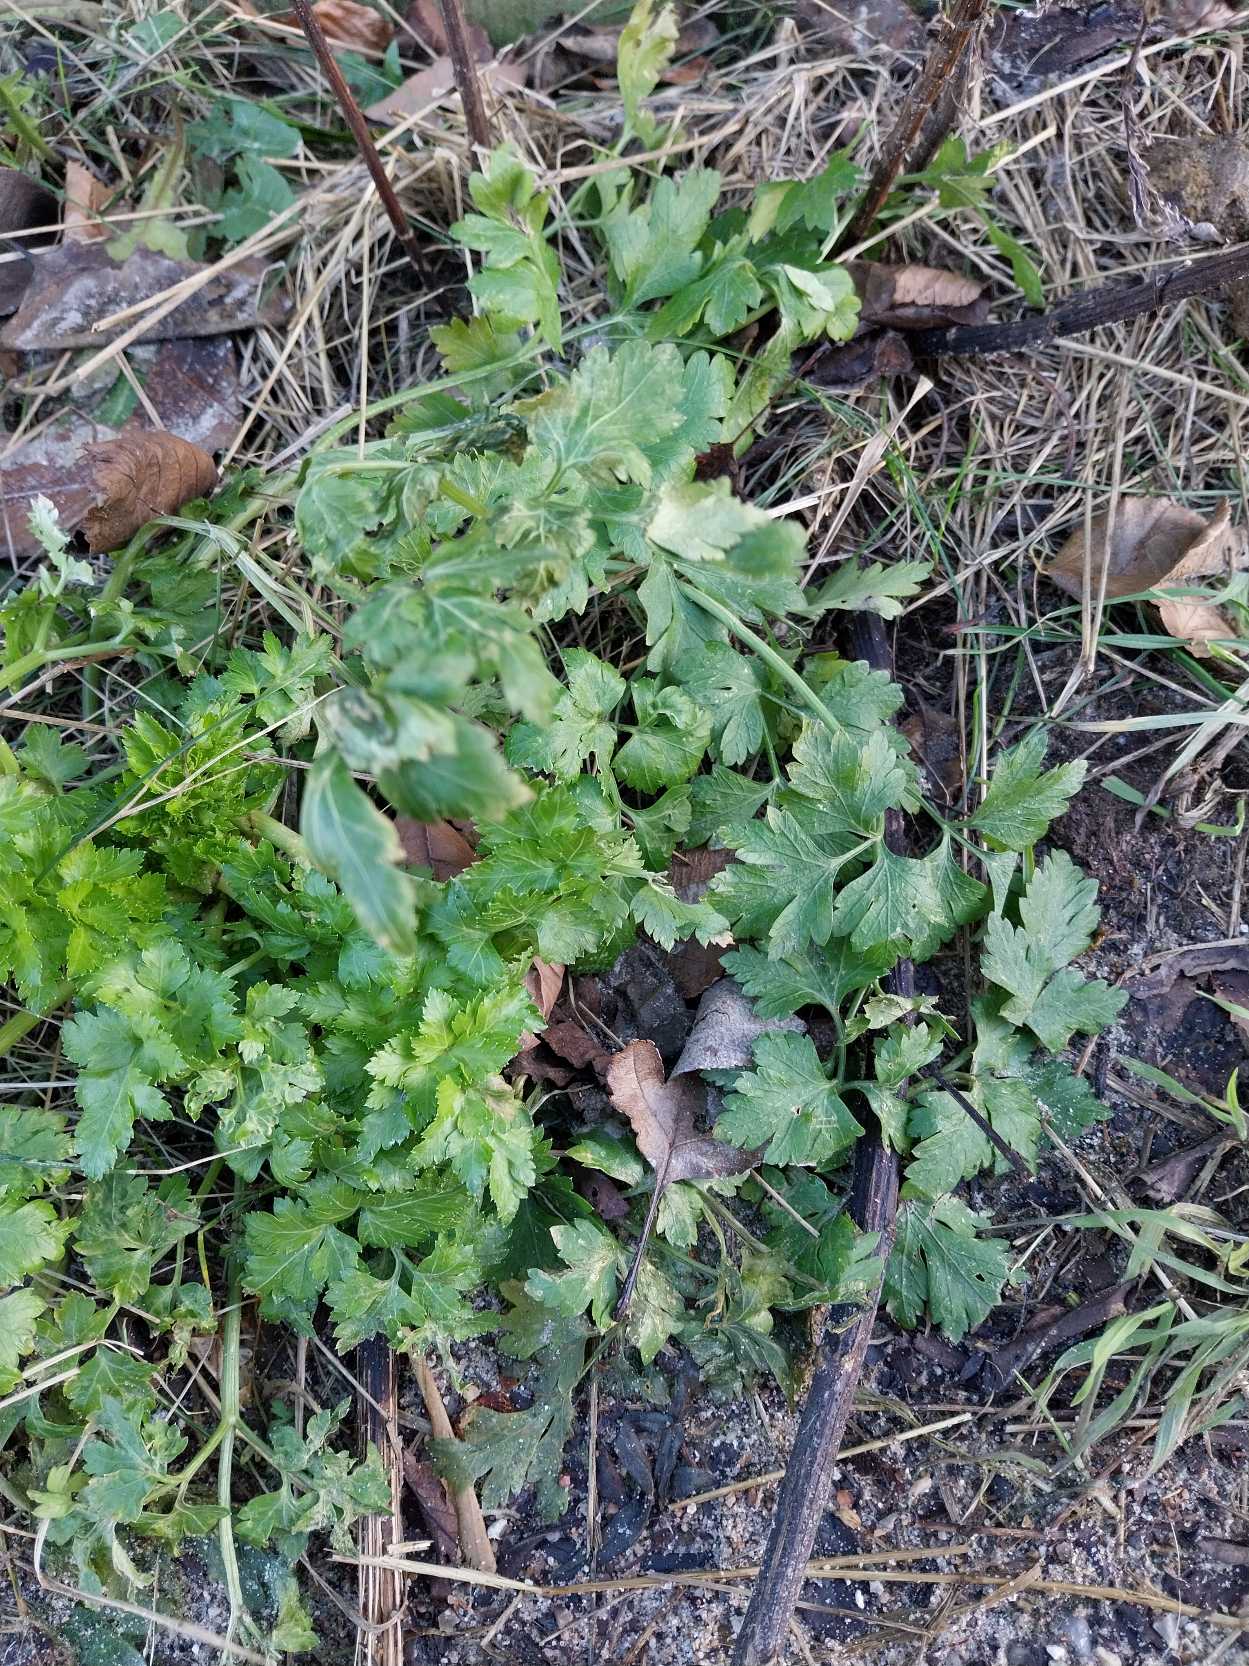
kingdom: Plantae
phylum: Tracheophyta
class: Magnoliopsida
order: Apiales
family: Apiaceae
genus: Petroselinum
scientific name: Petroselinum crispum
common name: Persille
